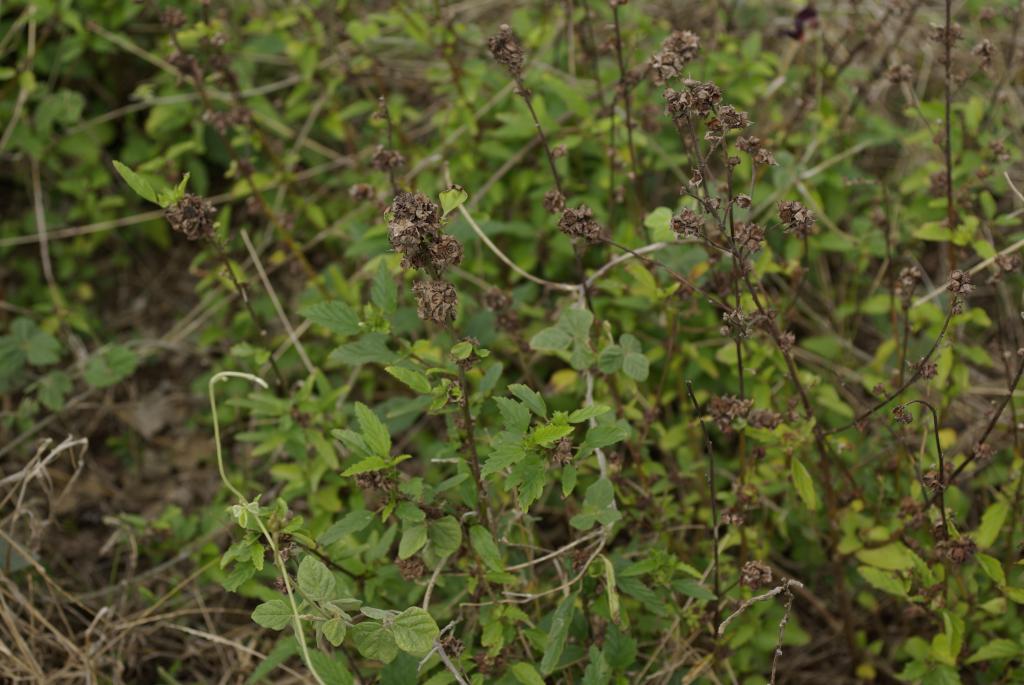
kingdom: Plantae
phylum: Tracheophyta
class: Magnoliopsida
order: Malvales
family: Malvaceae
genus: Sida
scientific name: Sida rhombifolia
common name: Queensland-hemp
